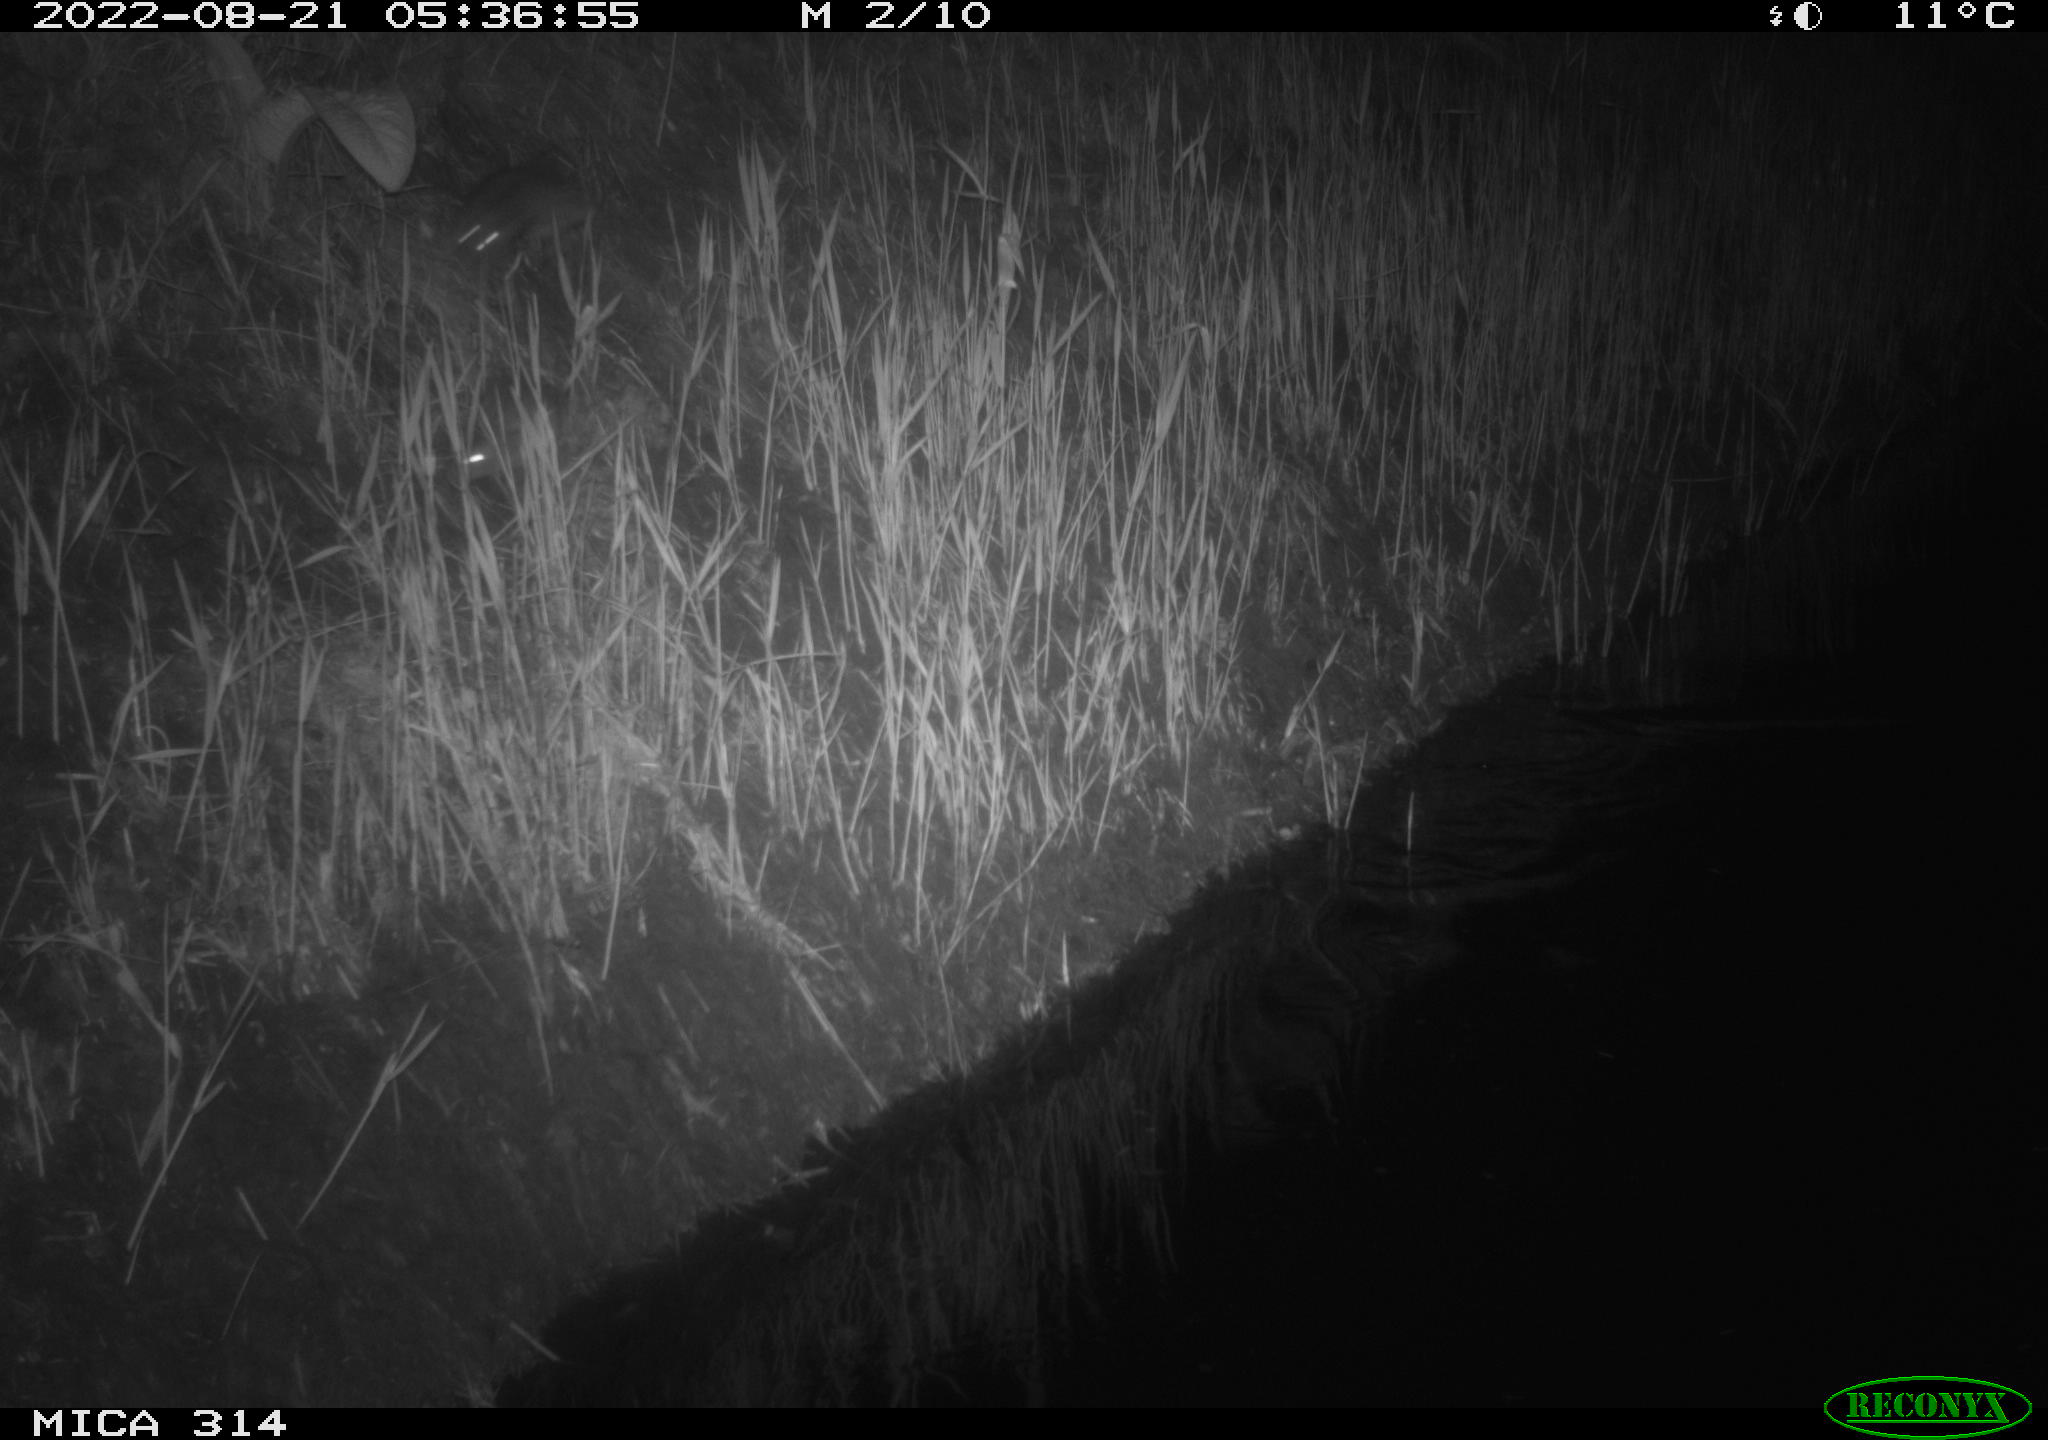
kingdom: Animalia
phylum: Chordata
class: Mammalia
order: Rodentia
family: Muridae
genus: Rattus
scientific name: Rattus norvegicus
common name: Brown rat
